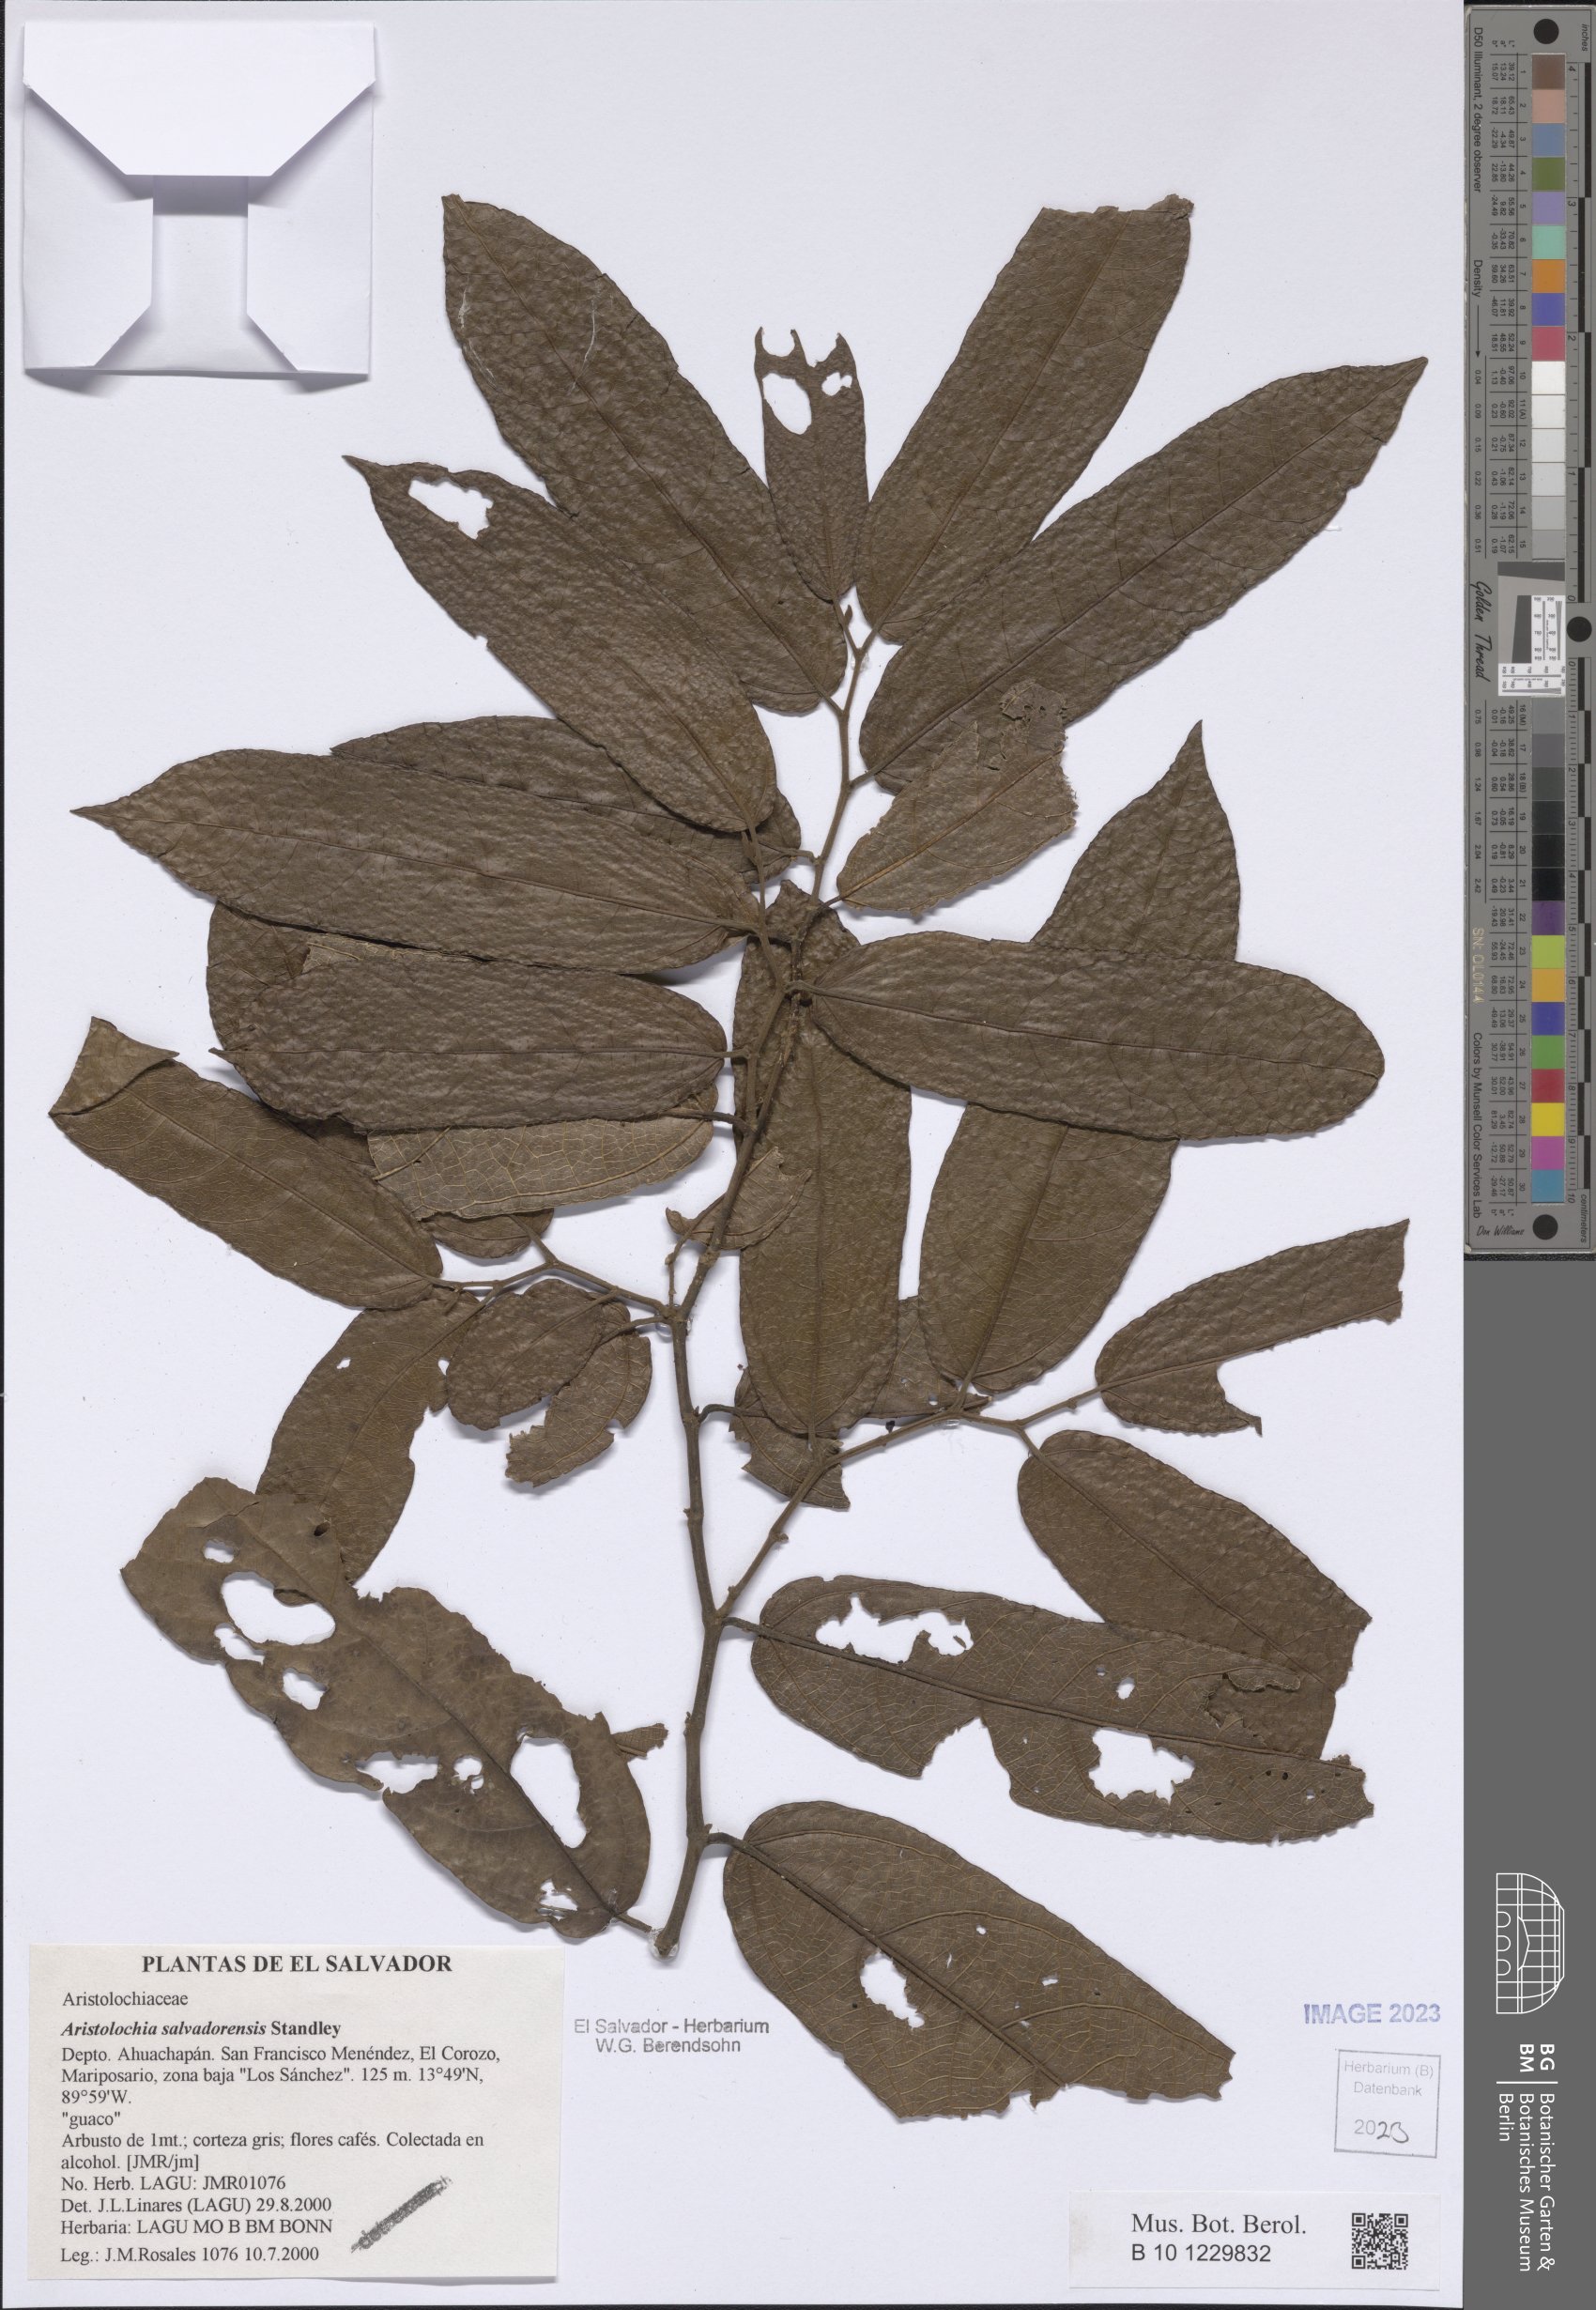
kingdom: Plantae
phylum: Tracheophyta
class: Magnoliopsida
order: Piperales
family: Aristolochiaceae
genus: Isotrema
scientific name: Isotrema arborea
